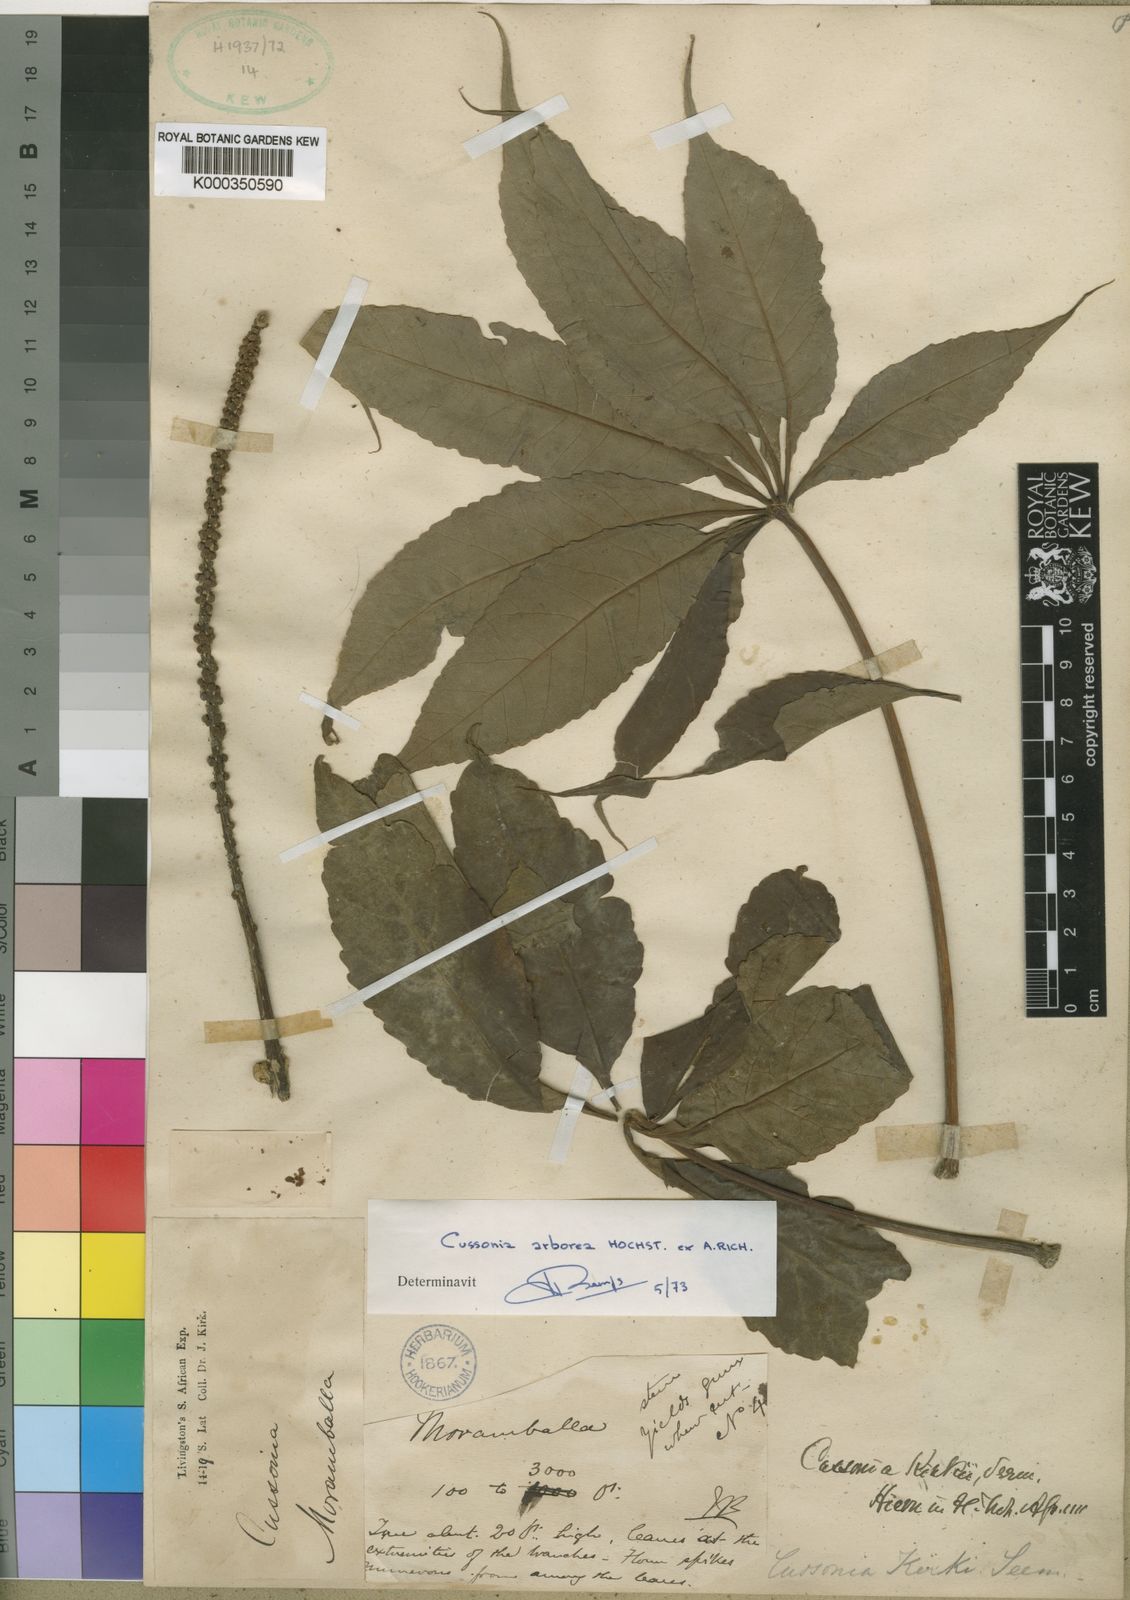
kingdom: Plantae
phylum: Tracheophyta
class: Magnoliopsida
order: Apiales
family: Araliaceae
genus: Cussonia
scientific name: Cussonia arborea
